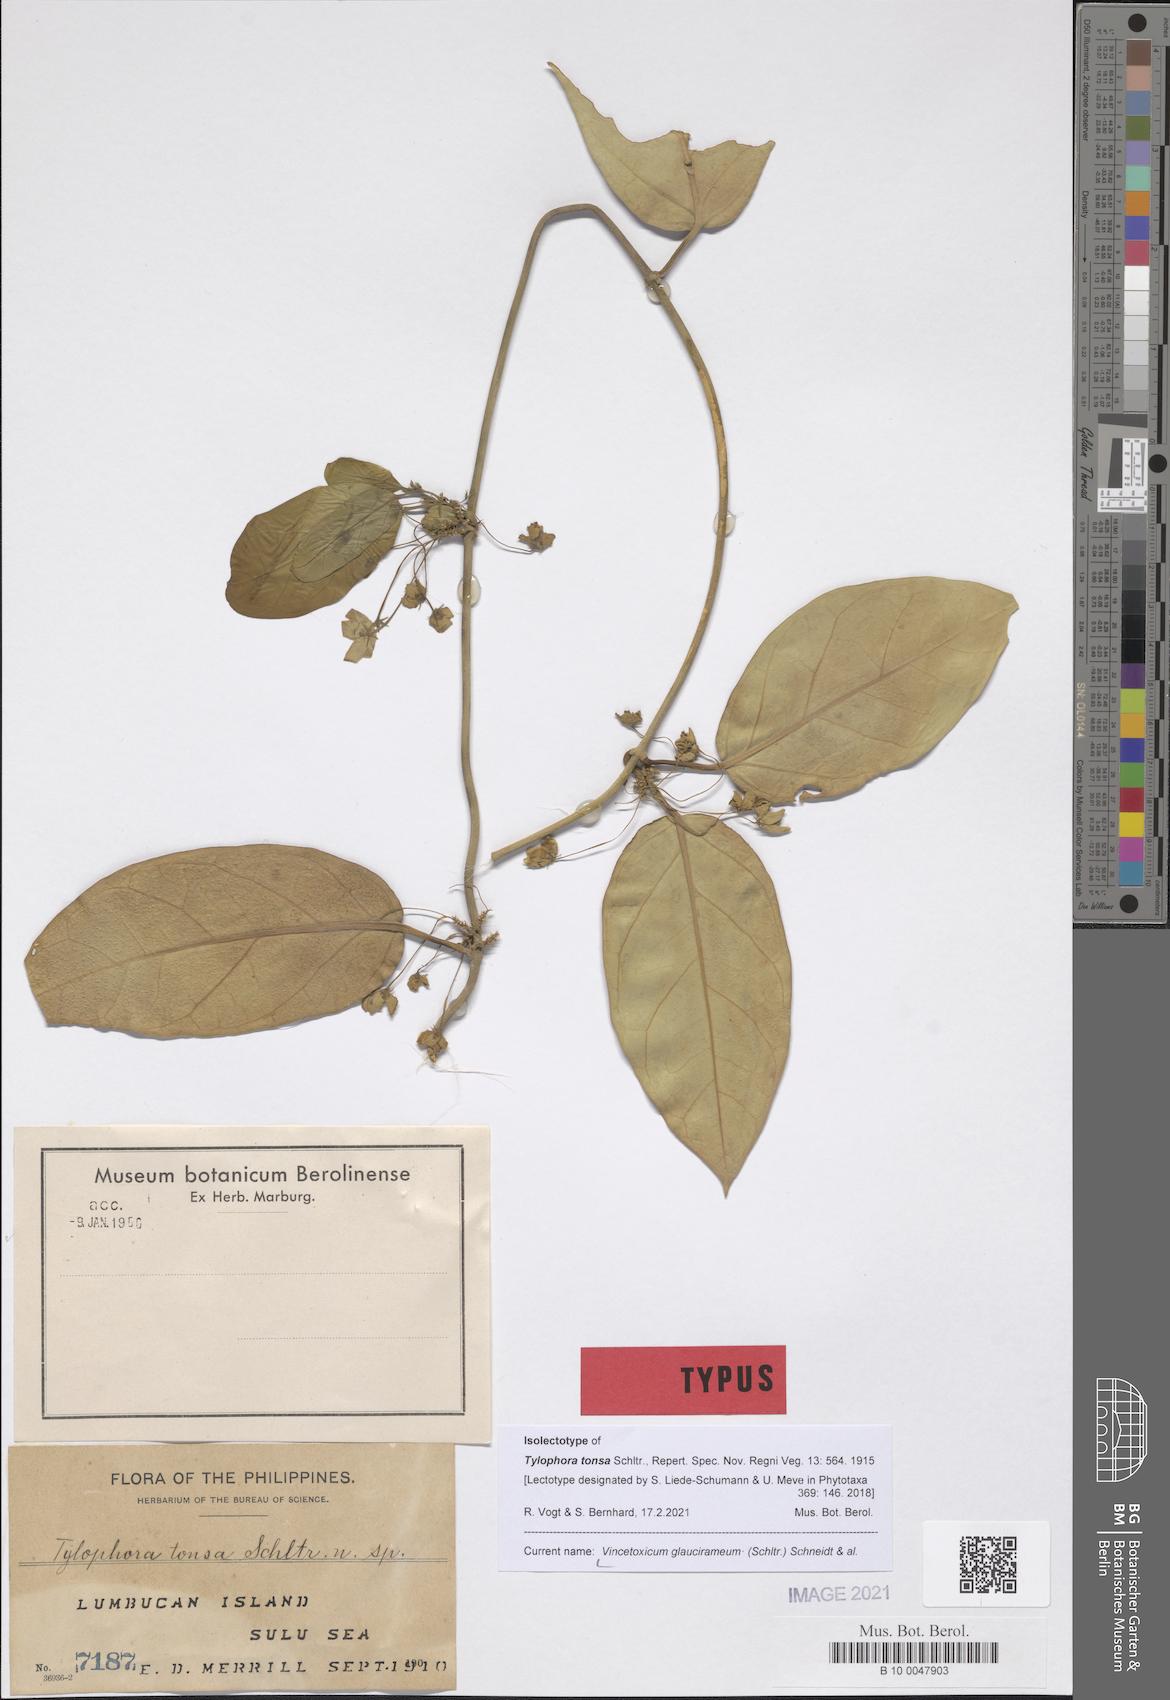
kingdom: Plantae
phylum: Tracheophyta
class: Magnoliopsida
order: Gentianales
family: Apocynaceae
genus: Vincetoxicum
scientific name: Vincetoxicum glaucirameum
